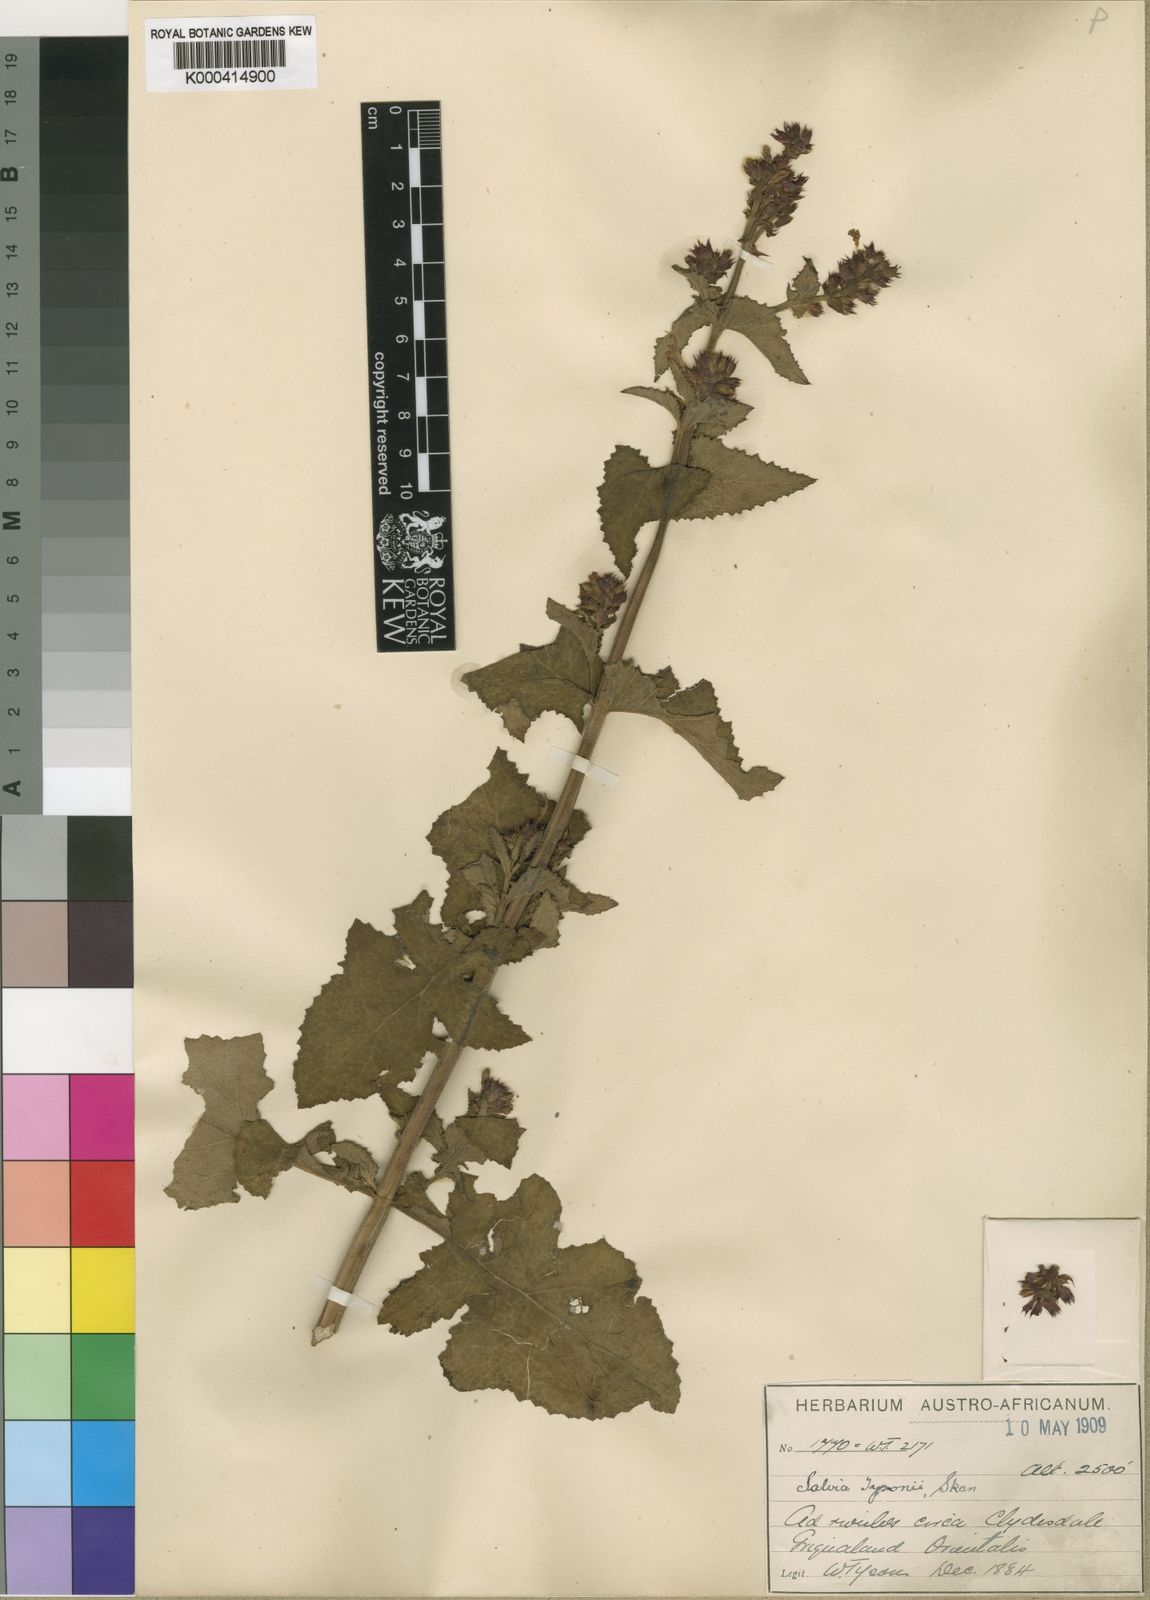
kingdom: Plantae
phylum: Tracheophyta
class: Magnoliopsida
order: Lamiales
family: Lamiaceae
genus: Salvia
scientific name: Salvia tysonii
